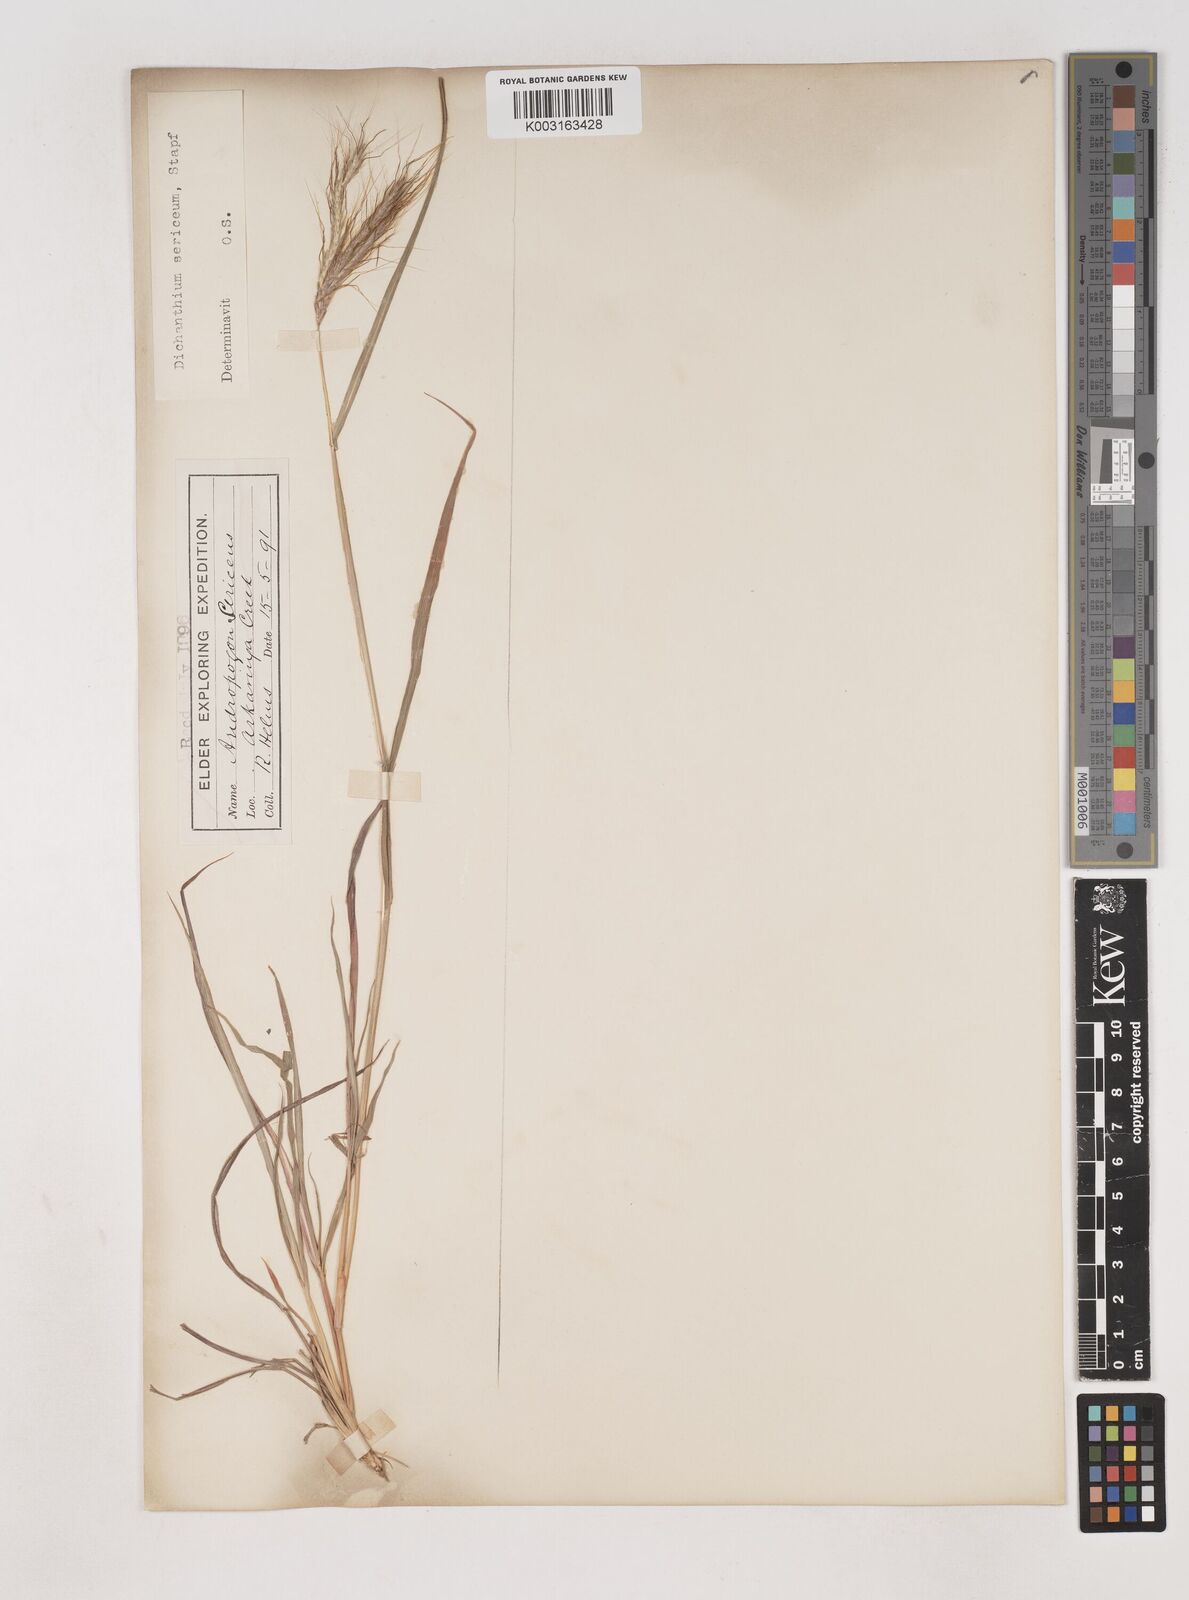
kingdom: Plantae
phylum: Tracheophyta
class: Liliopsida
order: Poales
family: Poaceae
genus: Dichanthium
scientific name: Dichanthium sericeum
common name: Silky bluestem
